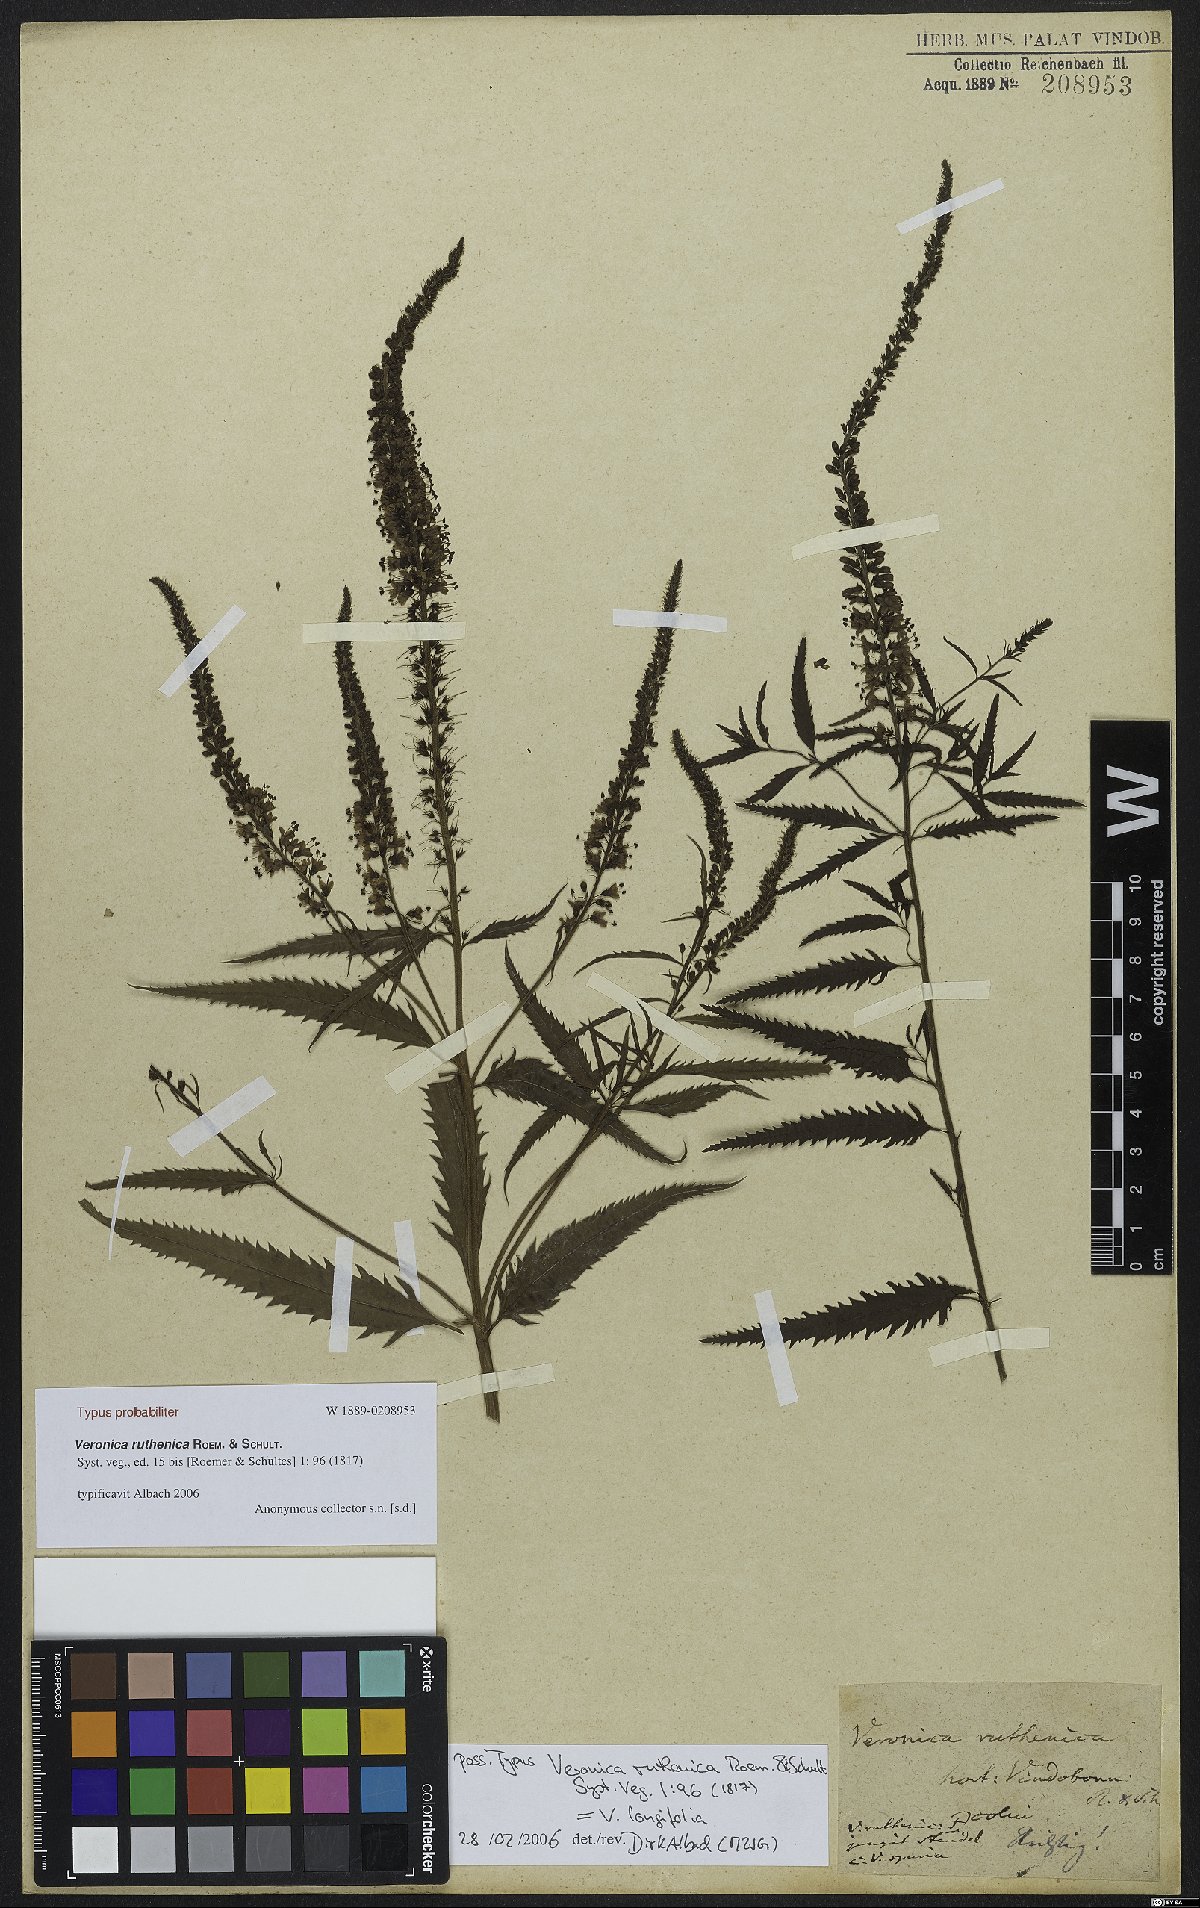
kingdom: Plantae
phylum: Tracheophyta
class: Magnoliopsida
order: Lamiales
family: Plantaginaceae
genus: Veronica
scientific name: Veronica maritima
